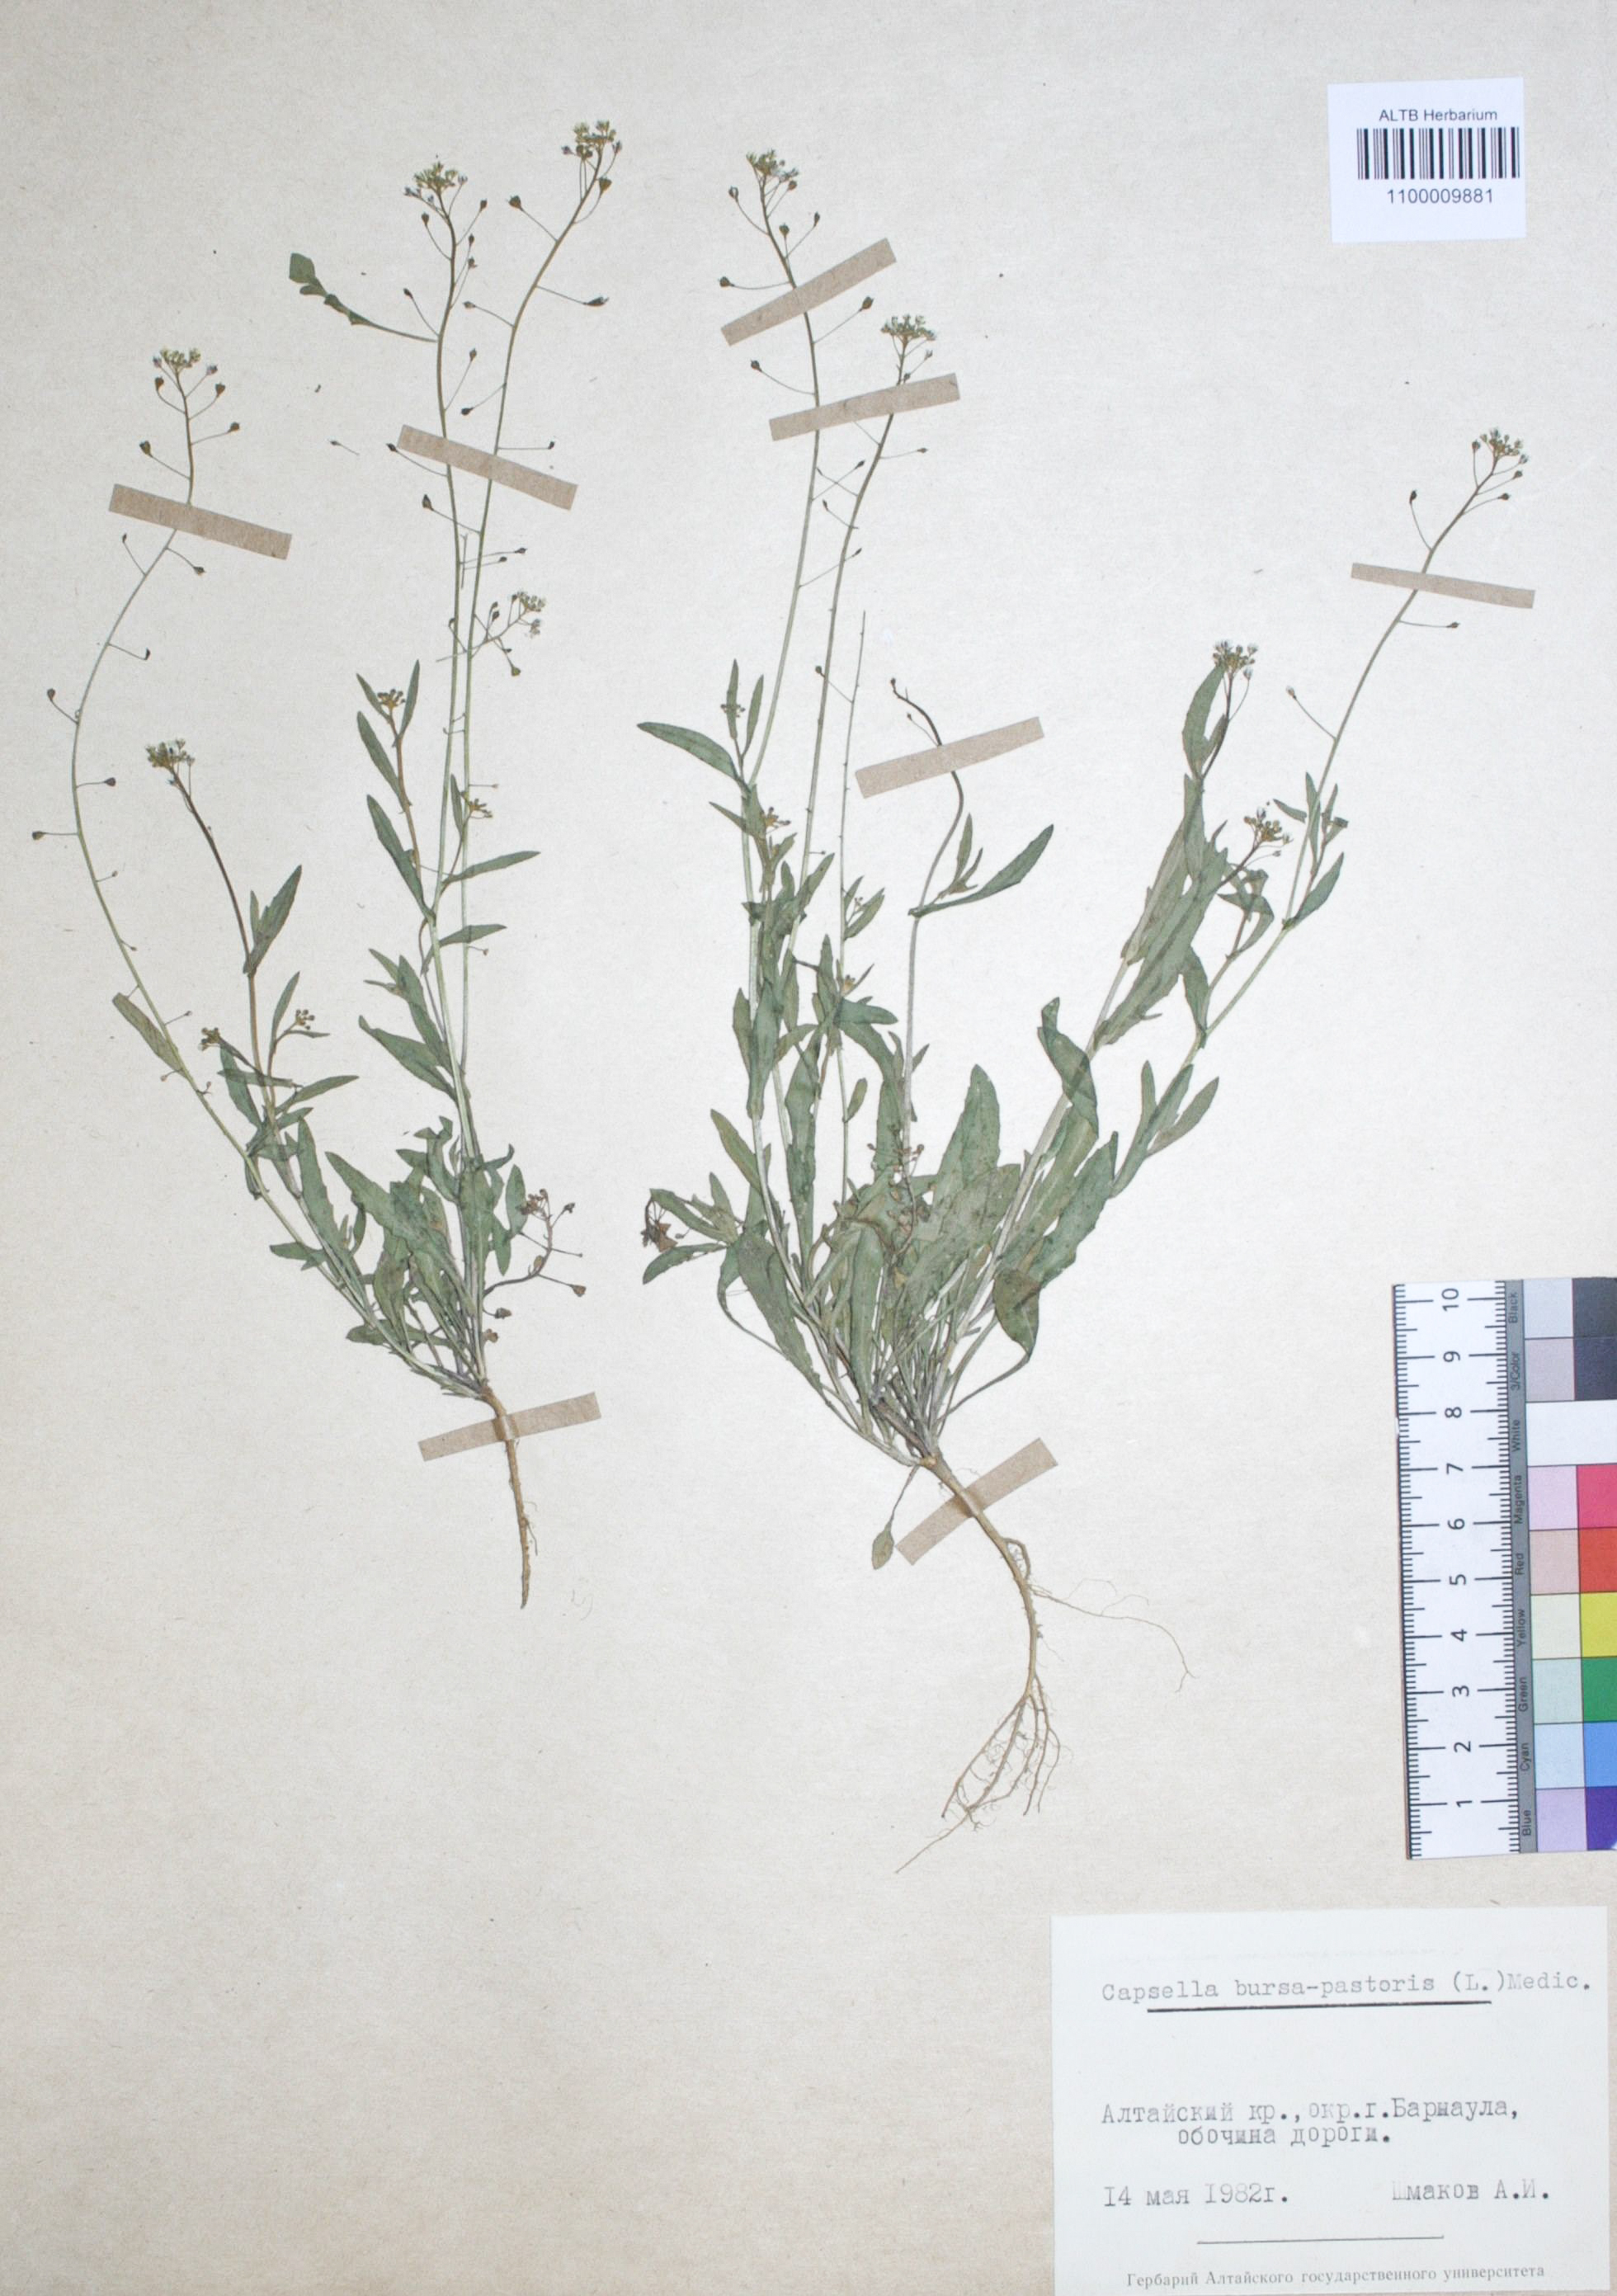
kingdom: Plantae
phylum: Tracheophyta
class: Magnoliopsida
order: Brassicales
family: Brassicaceae
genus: Capsella
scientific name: Capsella bursa-pastoris
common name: Shepherd's purse
